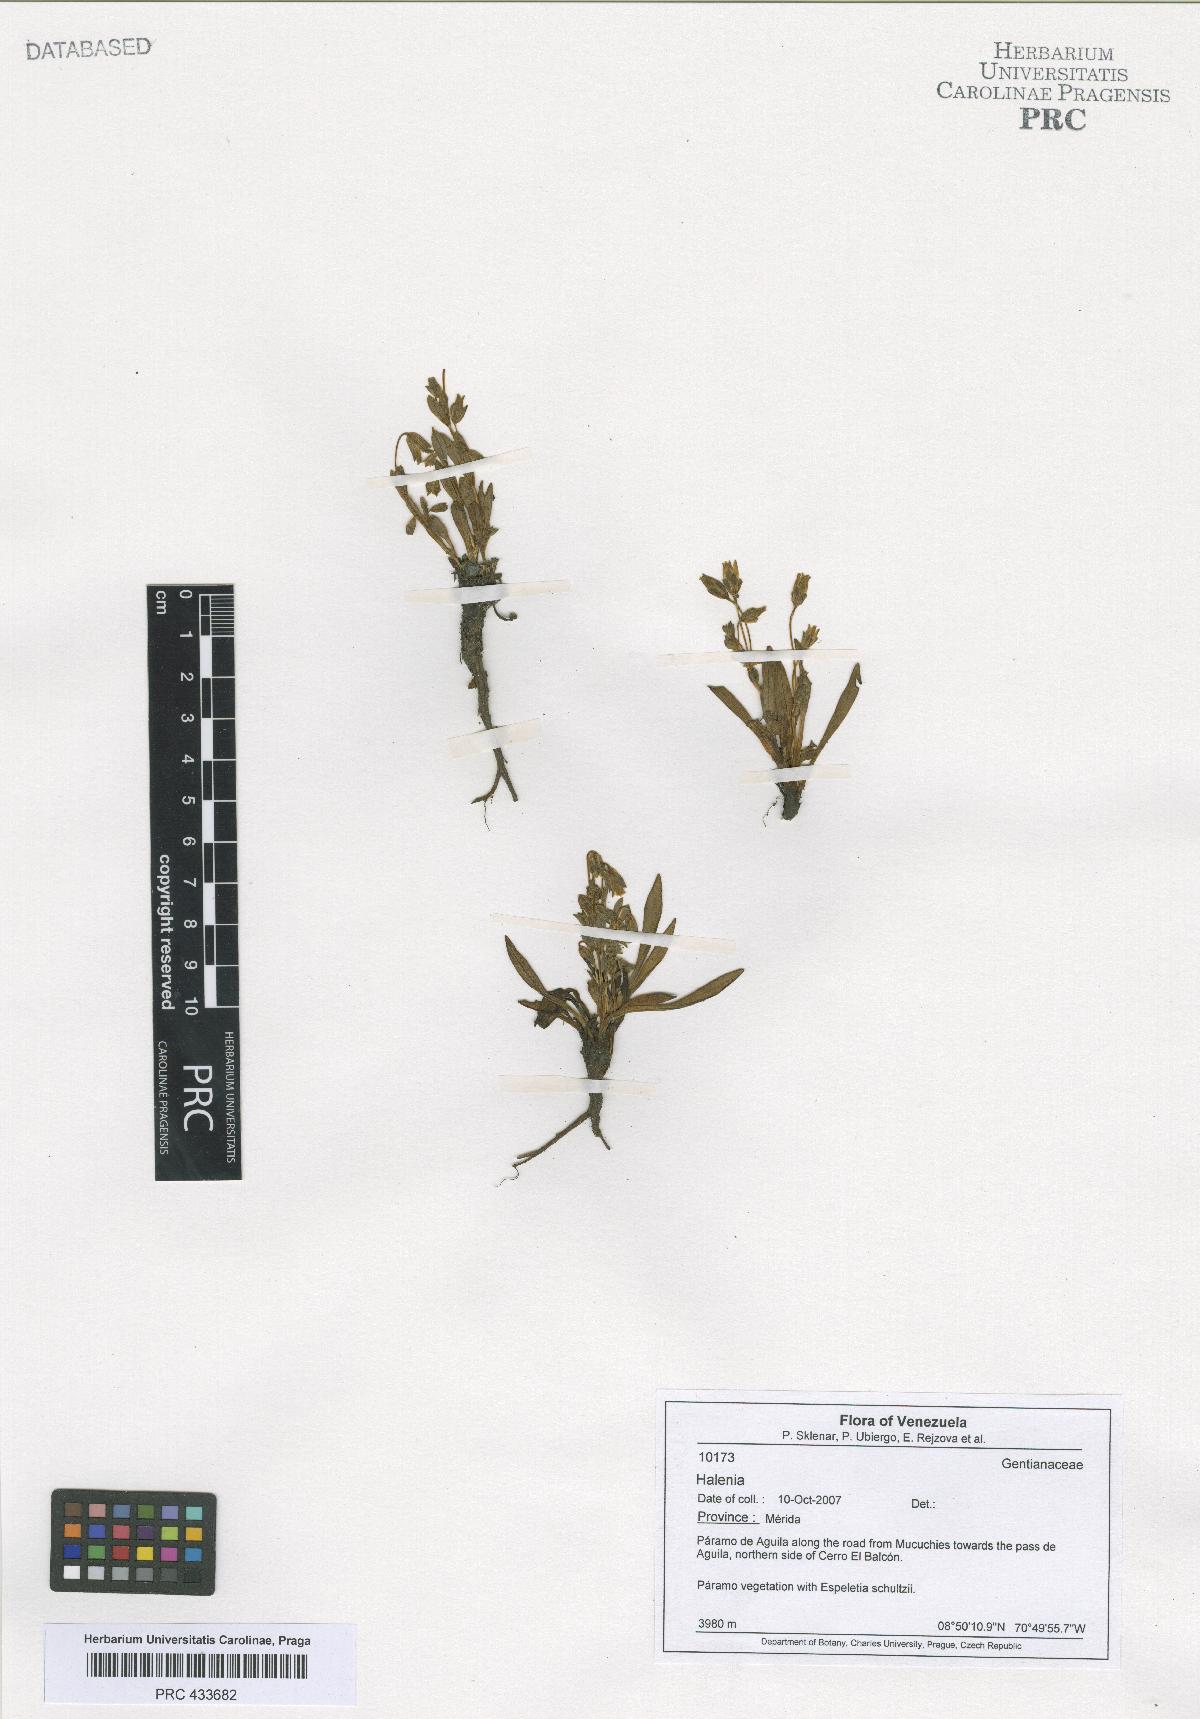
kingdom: Plantae
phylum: Tracheophyta
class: Magnoliopsida
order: Gentianales
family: Gentianaceae
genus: Halenia
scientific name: Halenia
